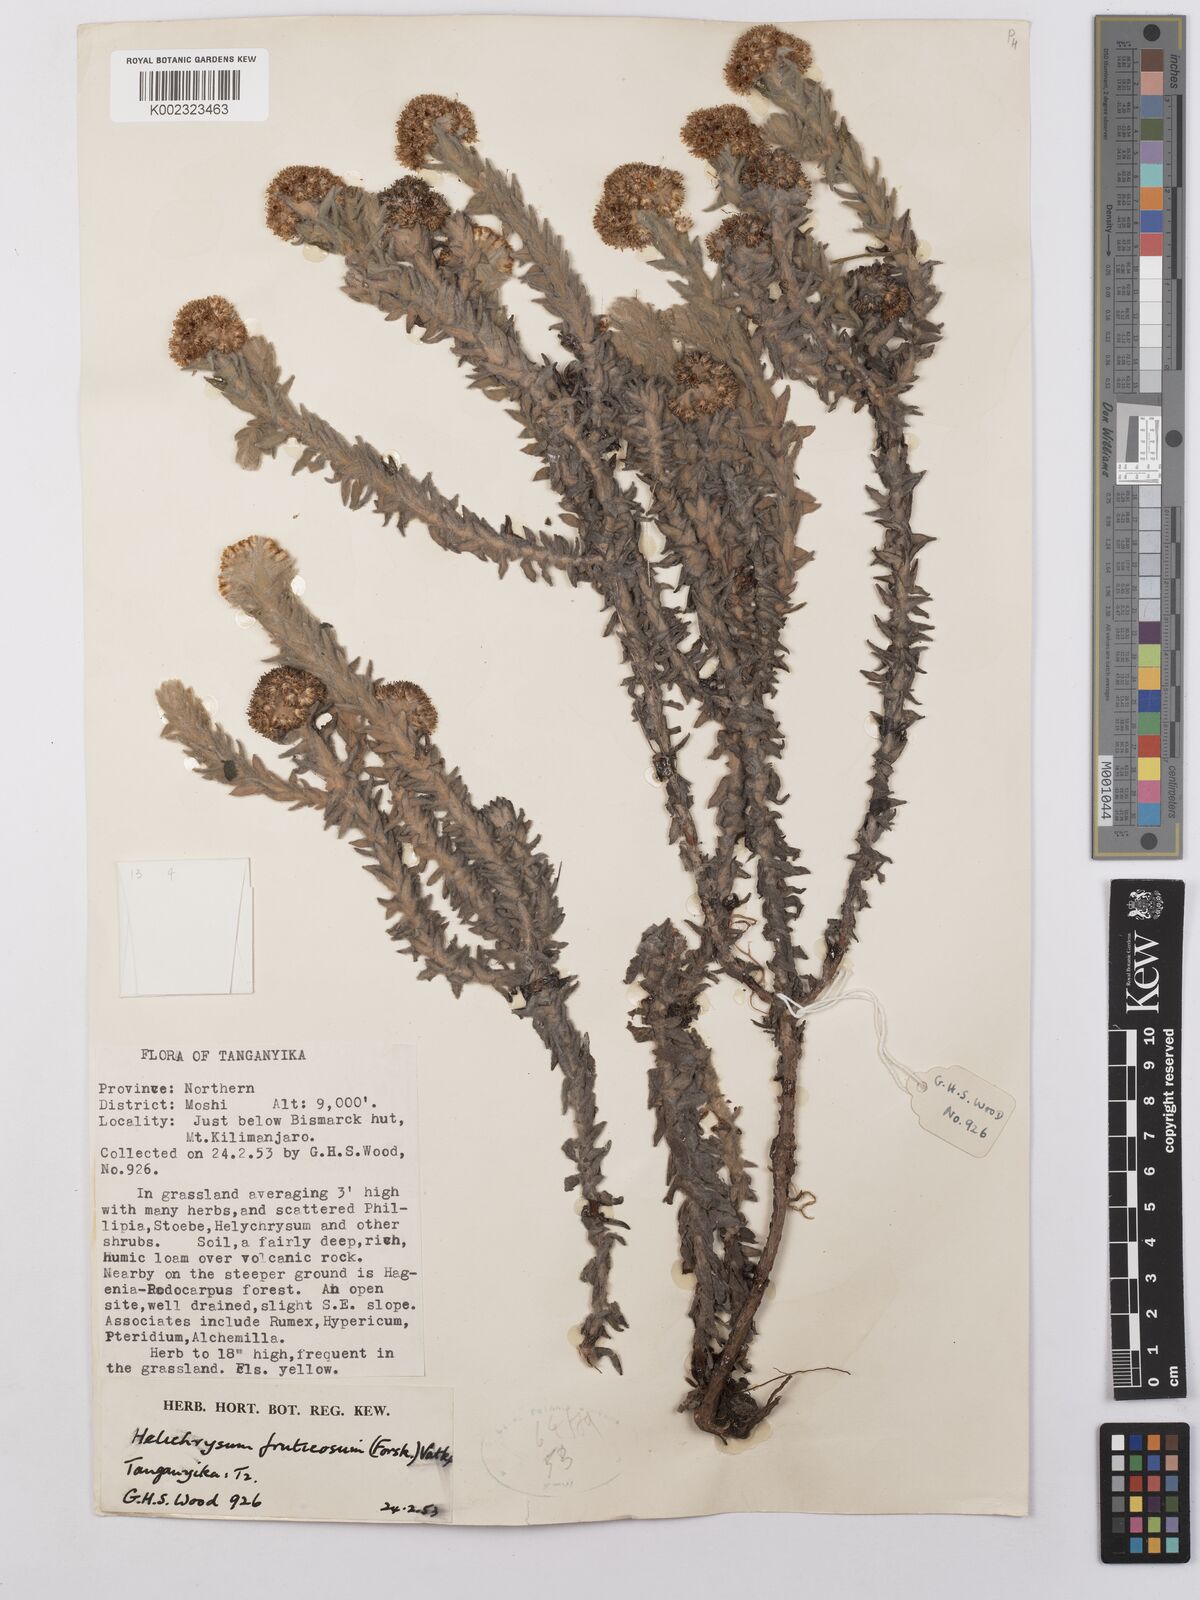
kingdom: Plantae
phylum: Tracheophyta
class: Magnoliopsida
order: Asterales
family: Asteraceae
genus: Helichrysum
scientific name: Helichrysum forskahlii
